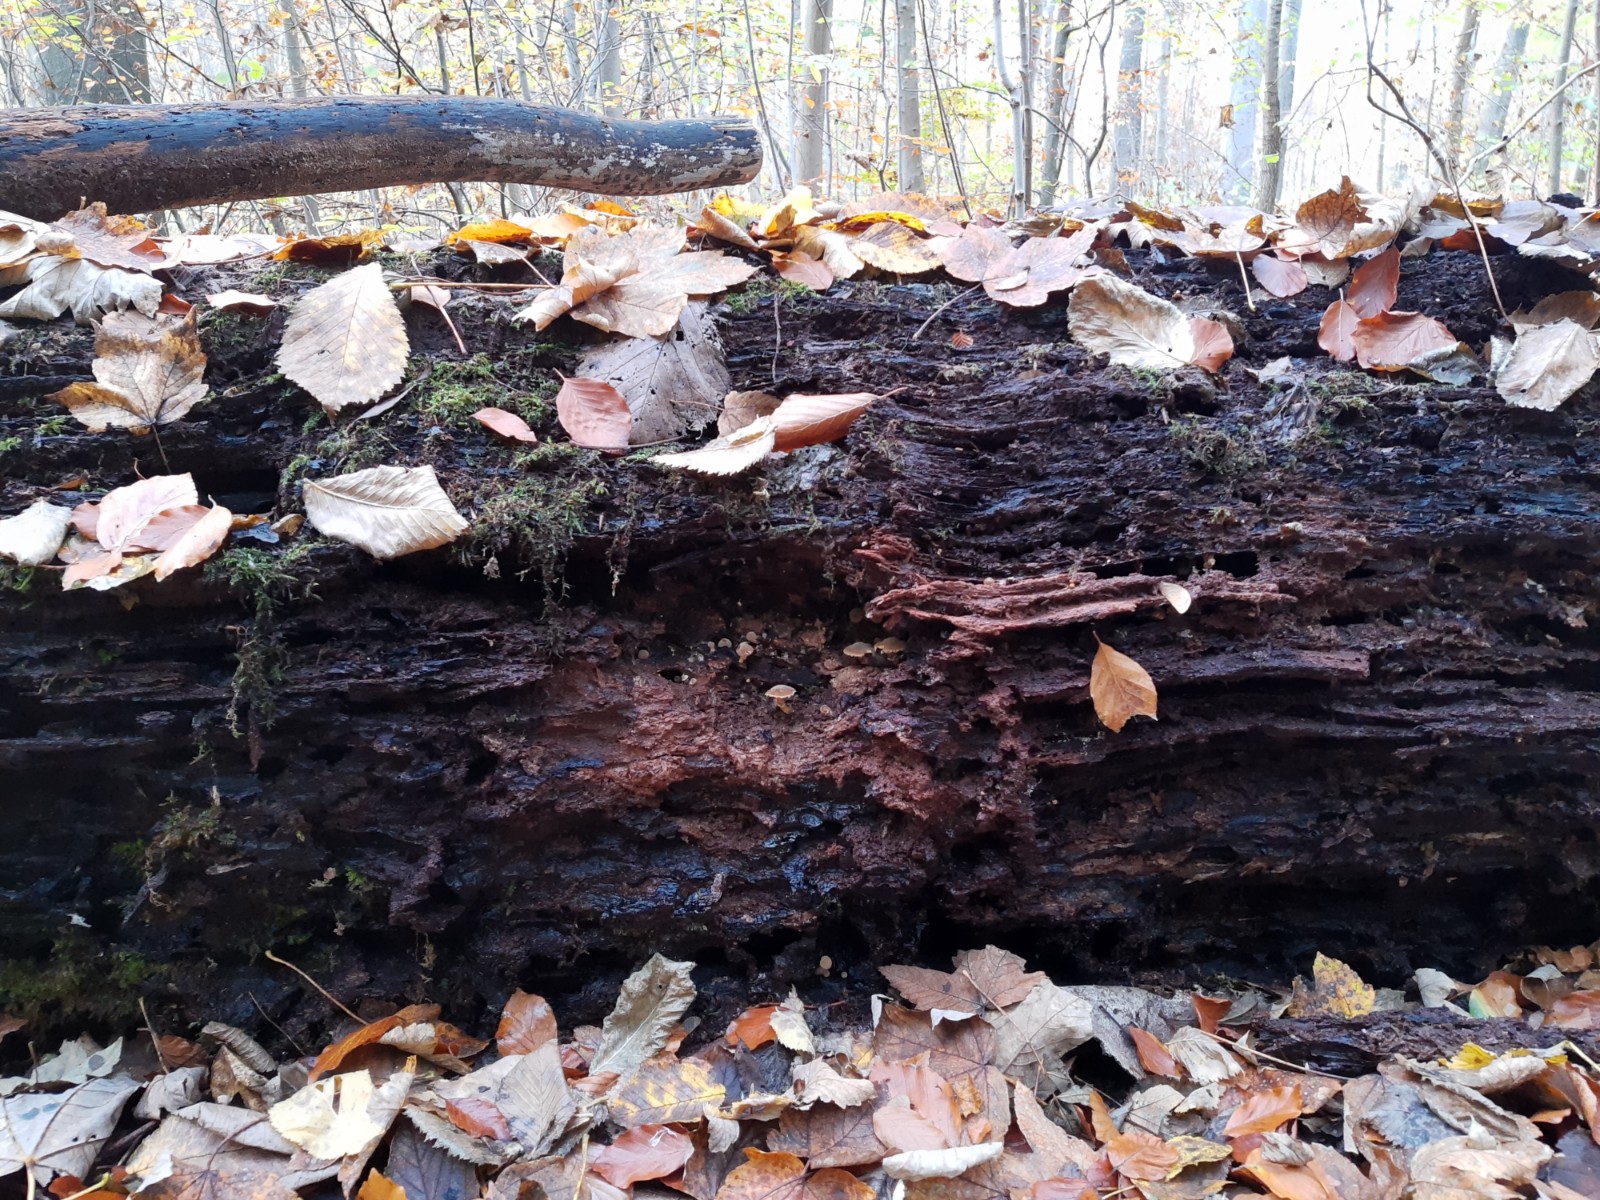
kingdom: Fungi
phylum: Basidiomycota
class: Agaricomycetes
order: Agaricales
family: Agaricaceae
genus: Cystodermella
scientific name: Cystodermella
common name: grynhat
